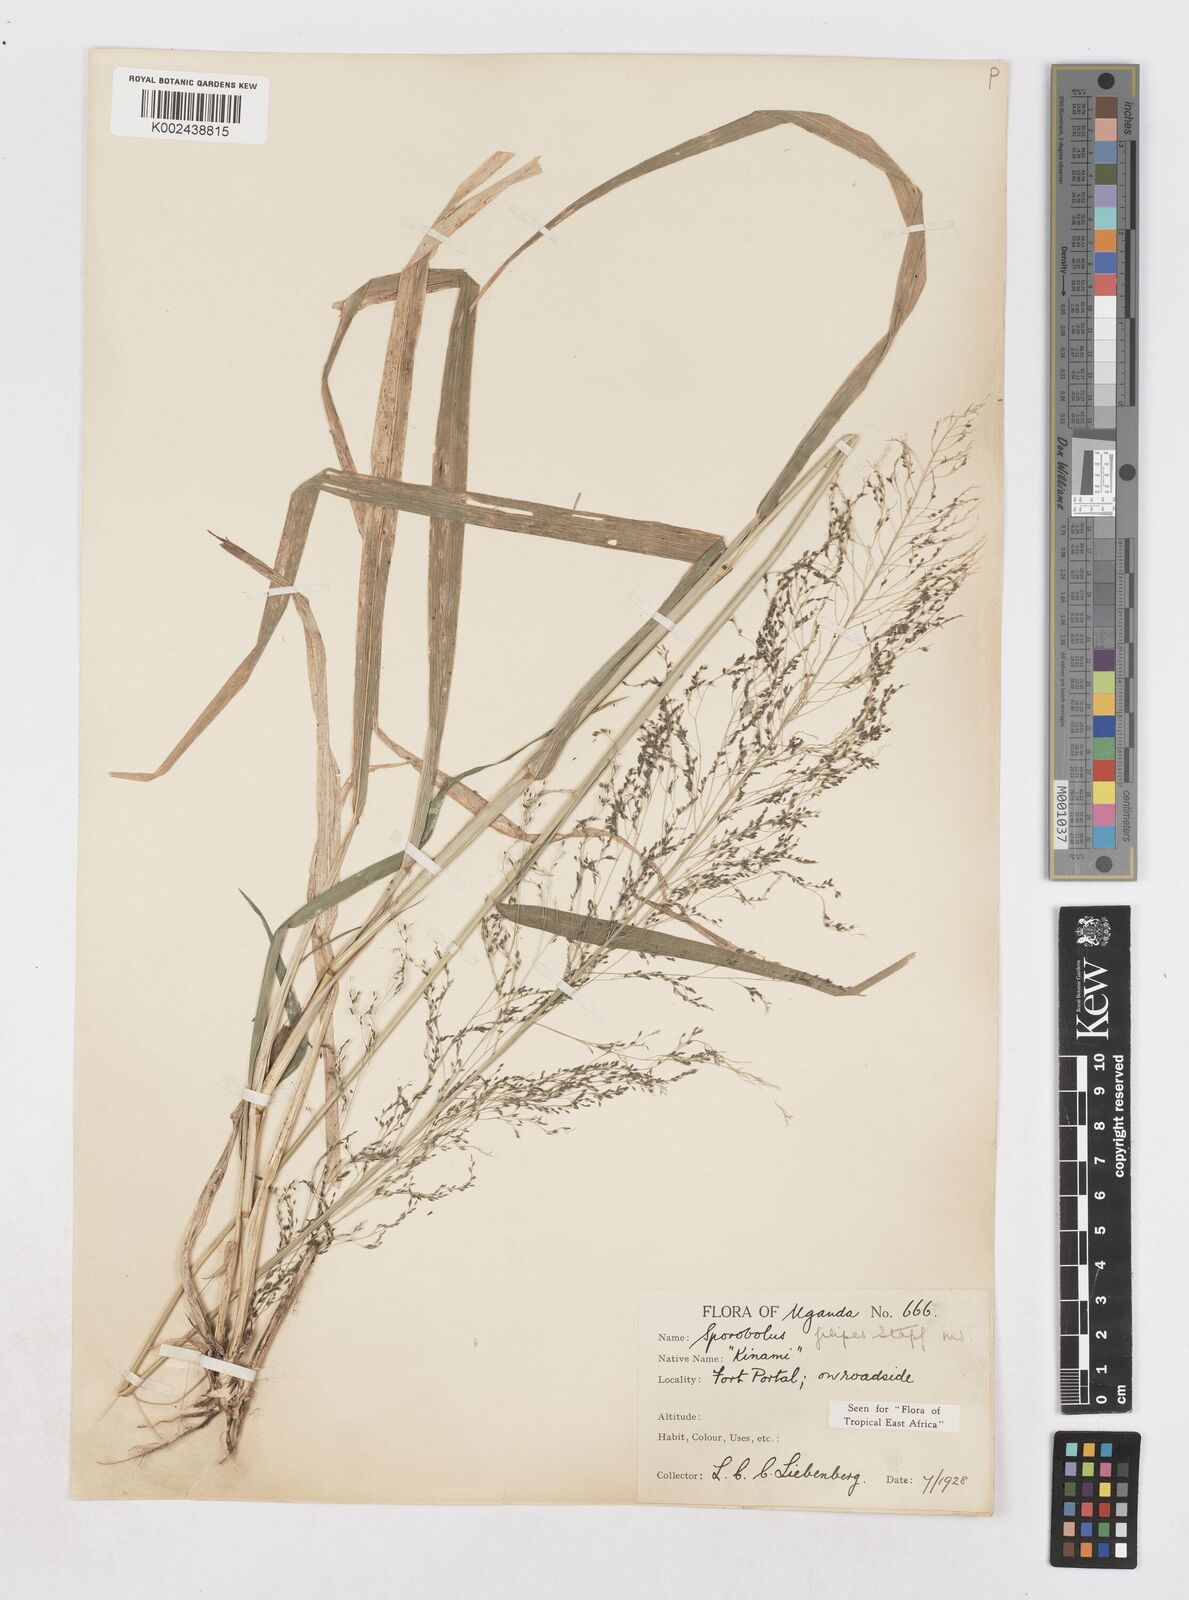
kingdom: Plantae
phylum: Tracheophyta
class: Liliopsida
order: Poales
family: Poaceae
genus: Sporobolus
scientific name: Sporobolus agrostoides
